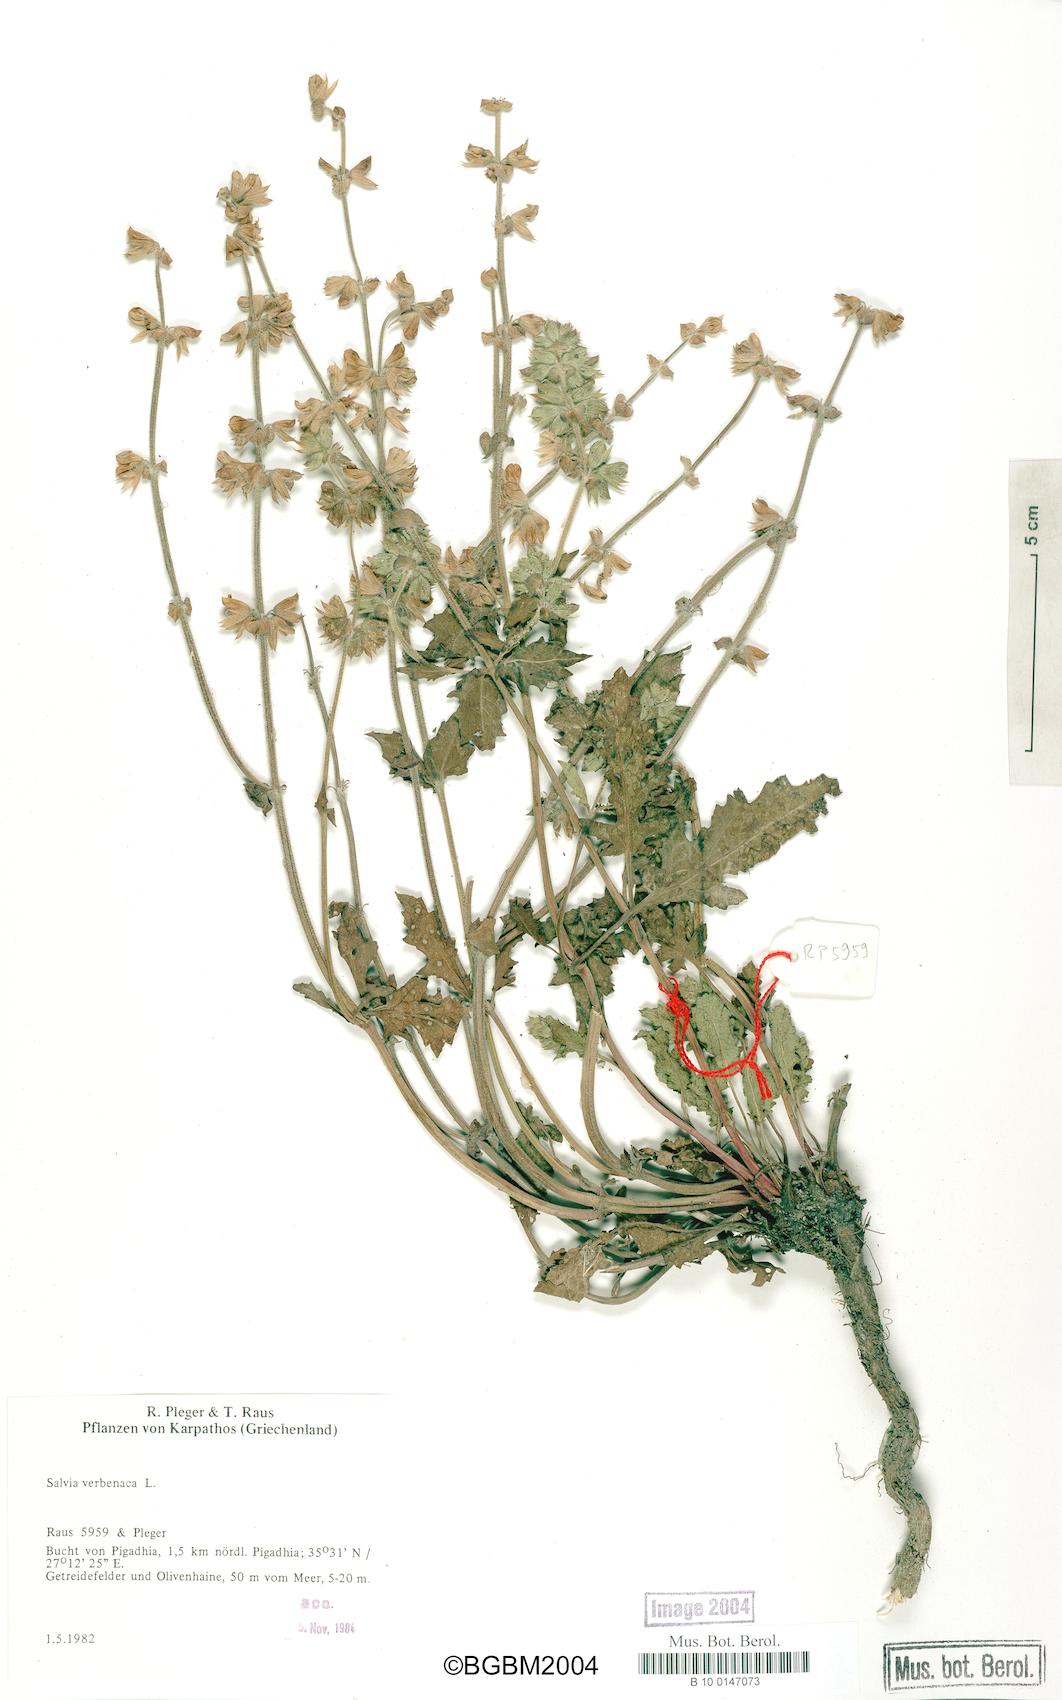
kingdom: Plantae
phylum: Tracheophyta
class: Magnoliopsida
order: Lamiales
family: Lamiaceae
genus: Salvia
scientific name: Salvia verbenaca
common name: Wild clary
